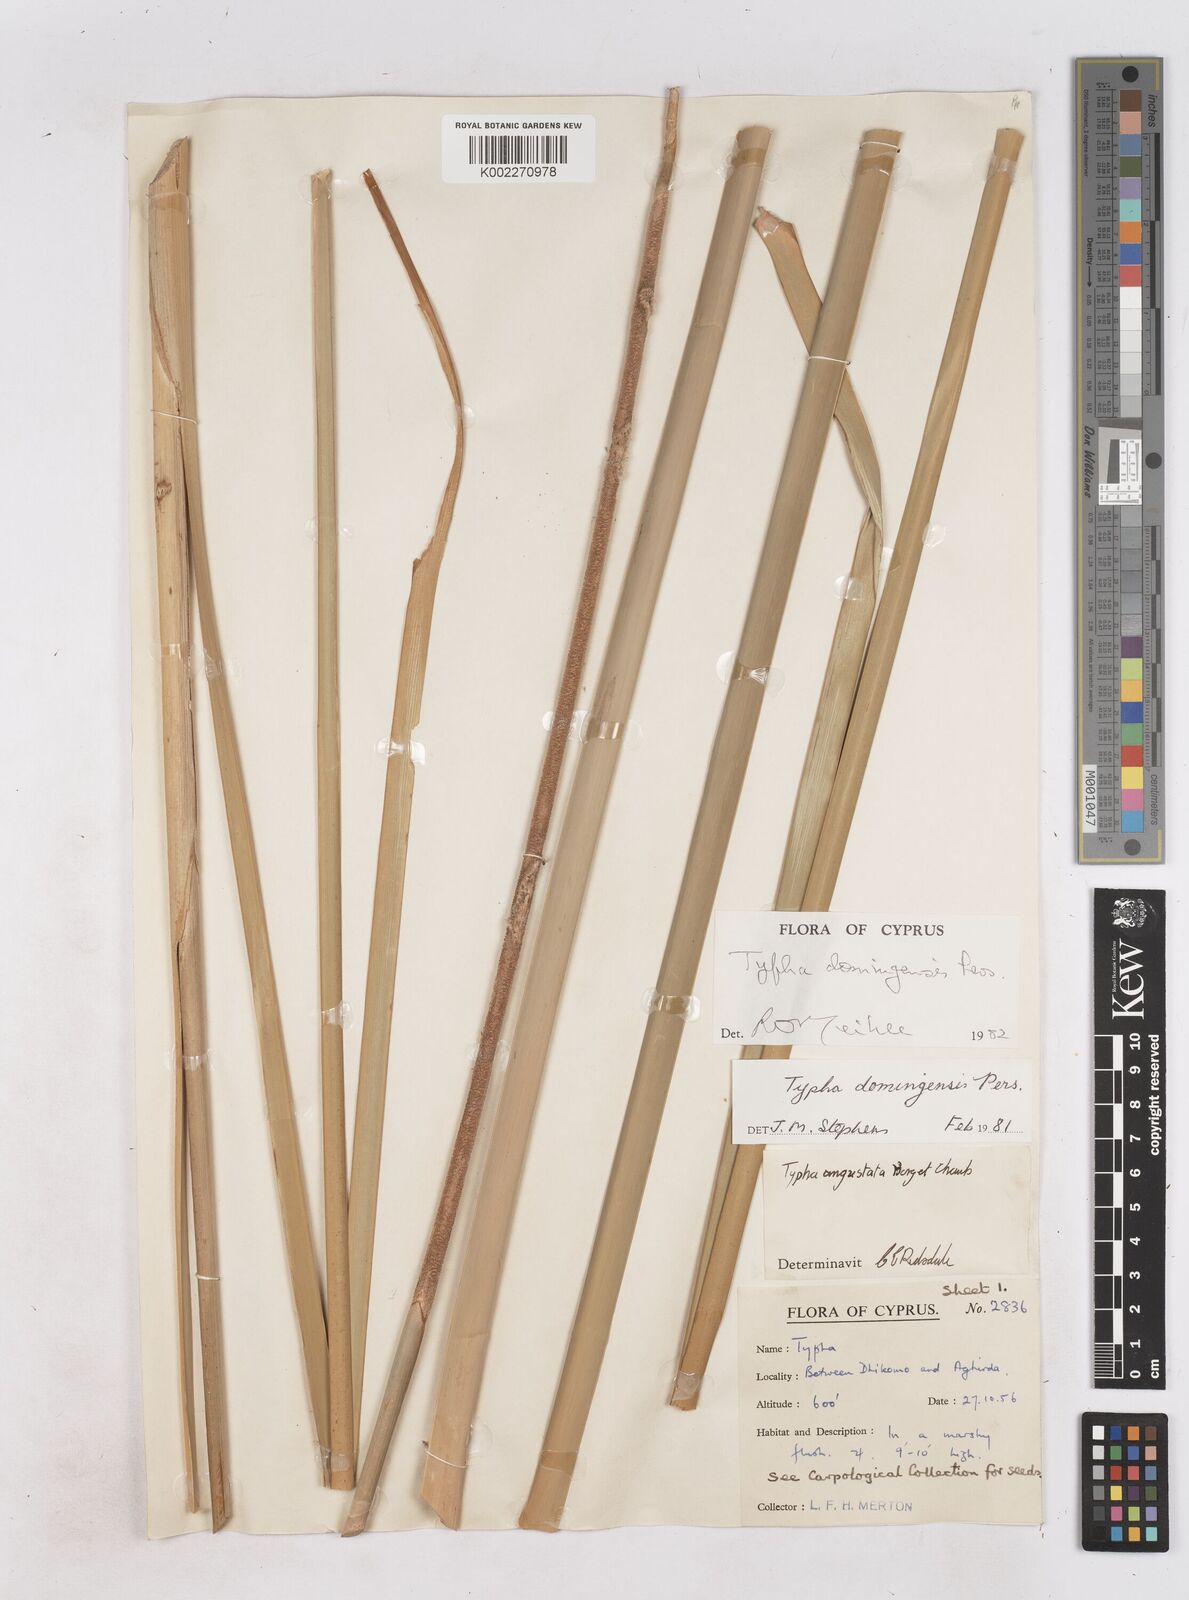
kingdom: Plantae
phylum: Tracheophyta
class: Liliopsida
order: Poales
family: Typhaceae
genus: Typha
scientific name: Typha domingensis
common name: Southern cattail
